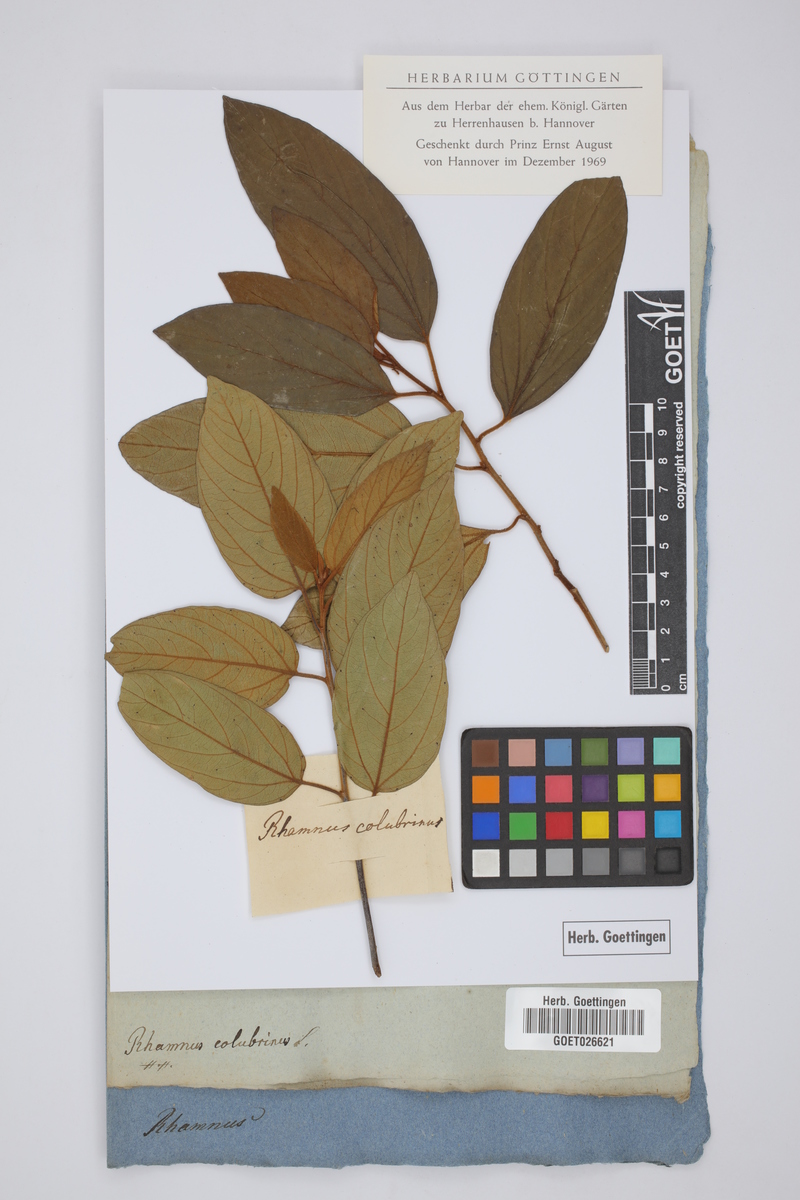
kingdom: Plantae
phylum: Tracheophyta
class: Magnoliopsida
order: Rosales
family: Rhamnaceae
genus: Colubrina
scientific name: Colubrina arborescens
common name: Wild coffee
